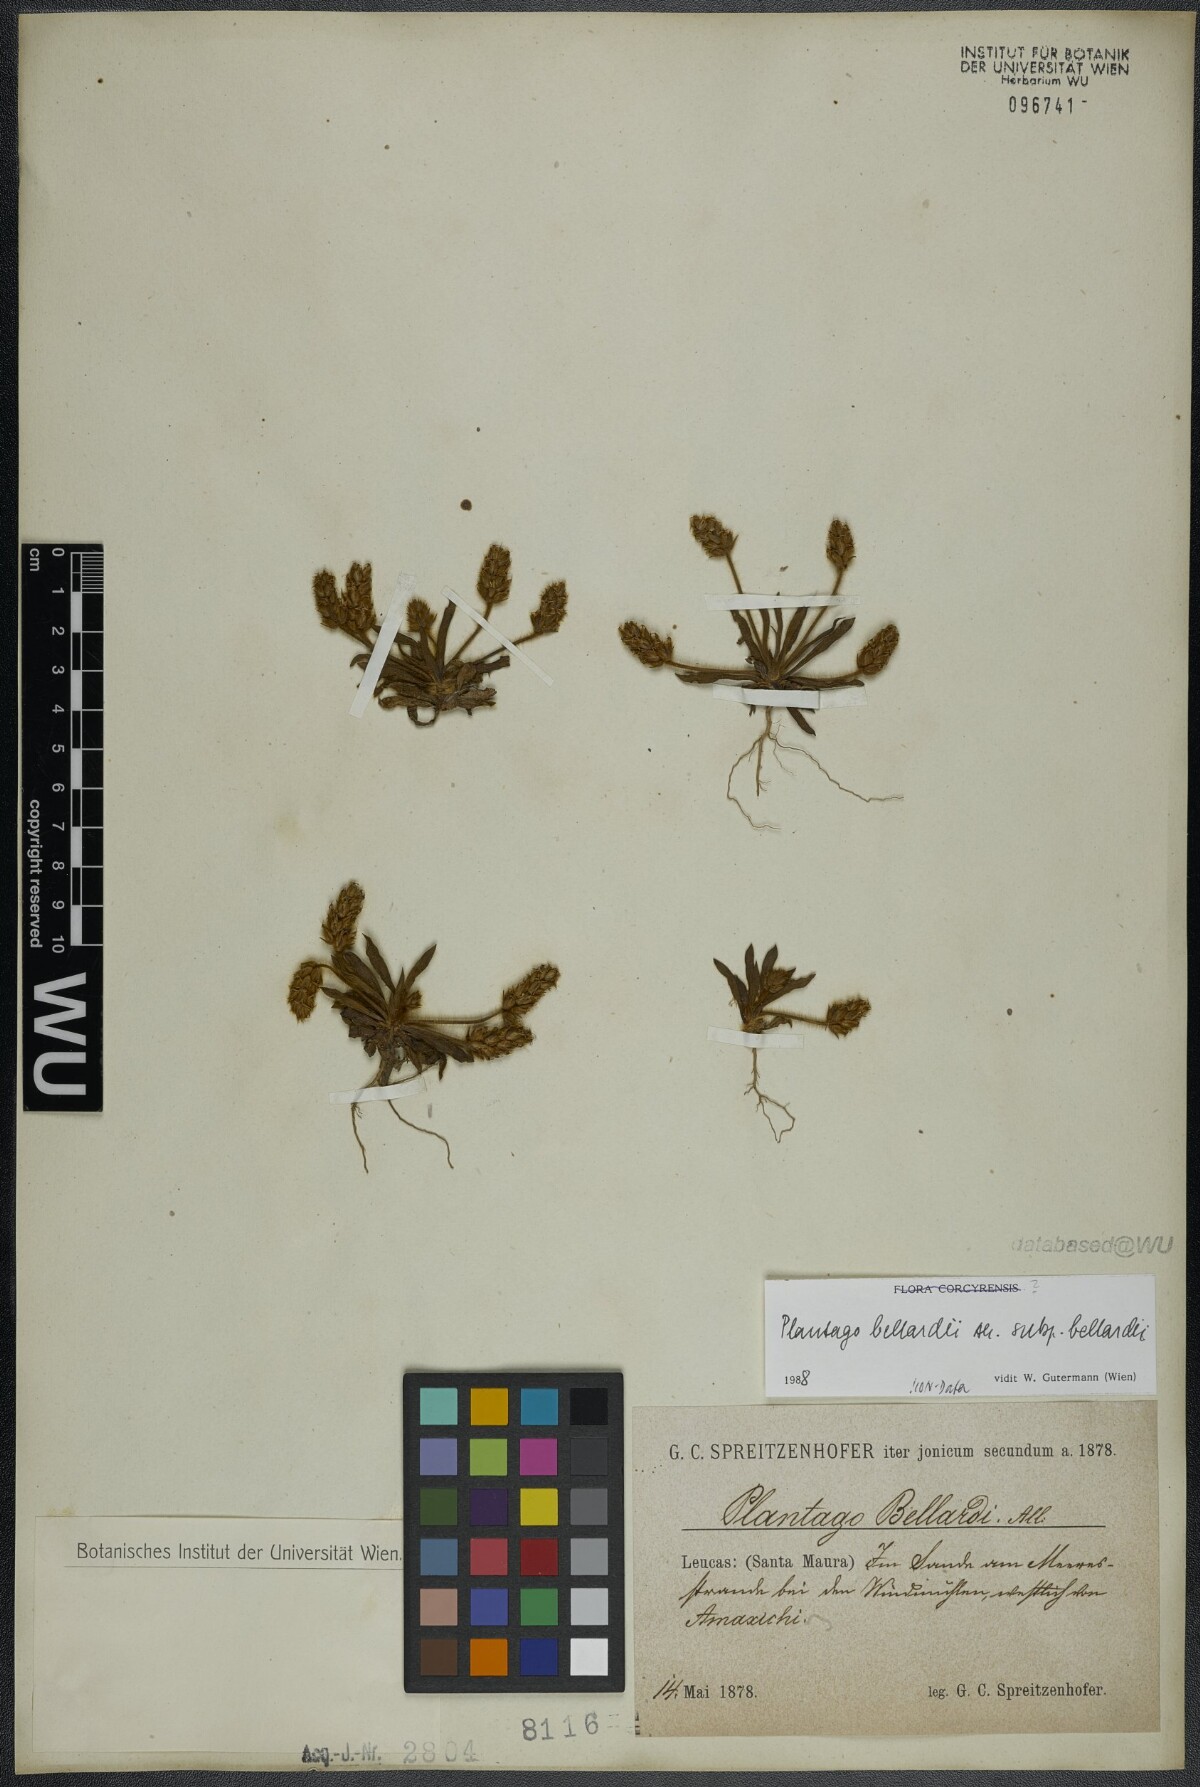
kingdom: Plantae
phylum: Tracheophyta
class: Magnoliopsida
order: Lamiales
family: Plantaginaceae
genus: Plantago
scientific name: Plantago bellardii
